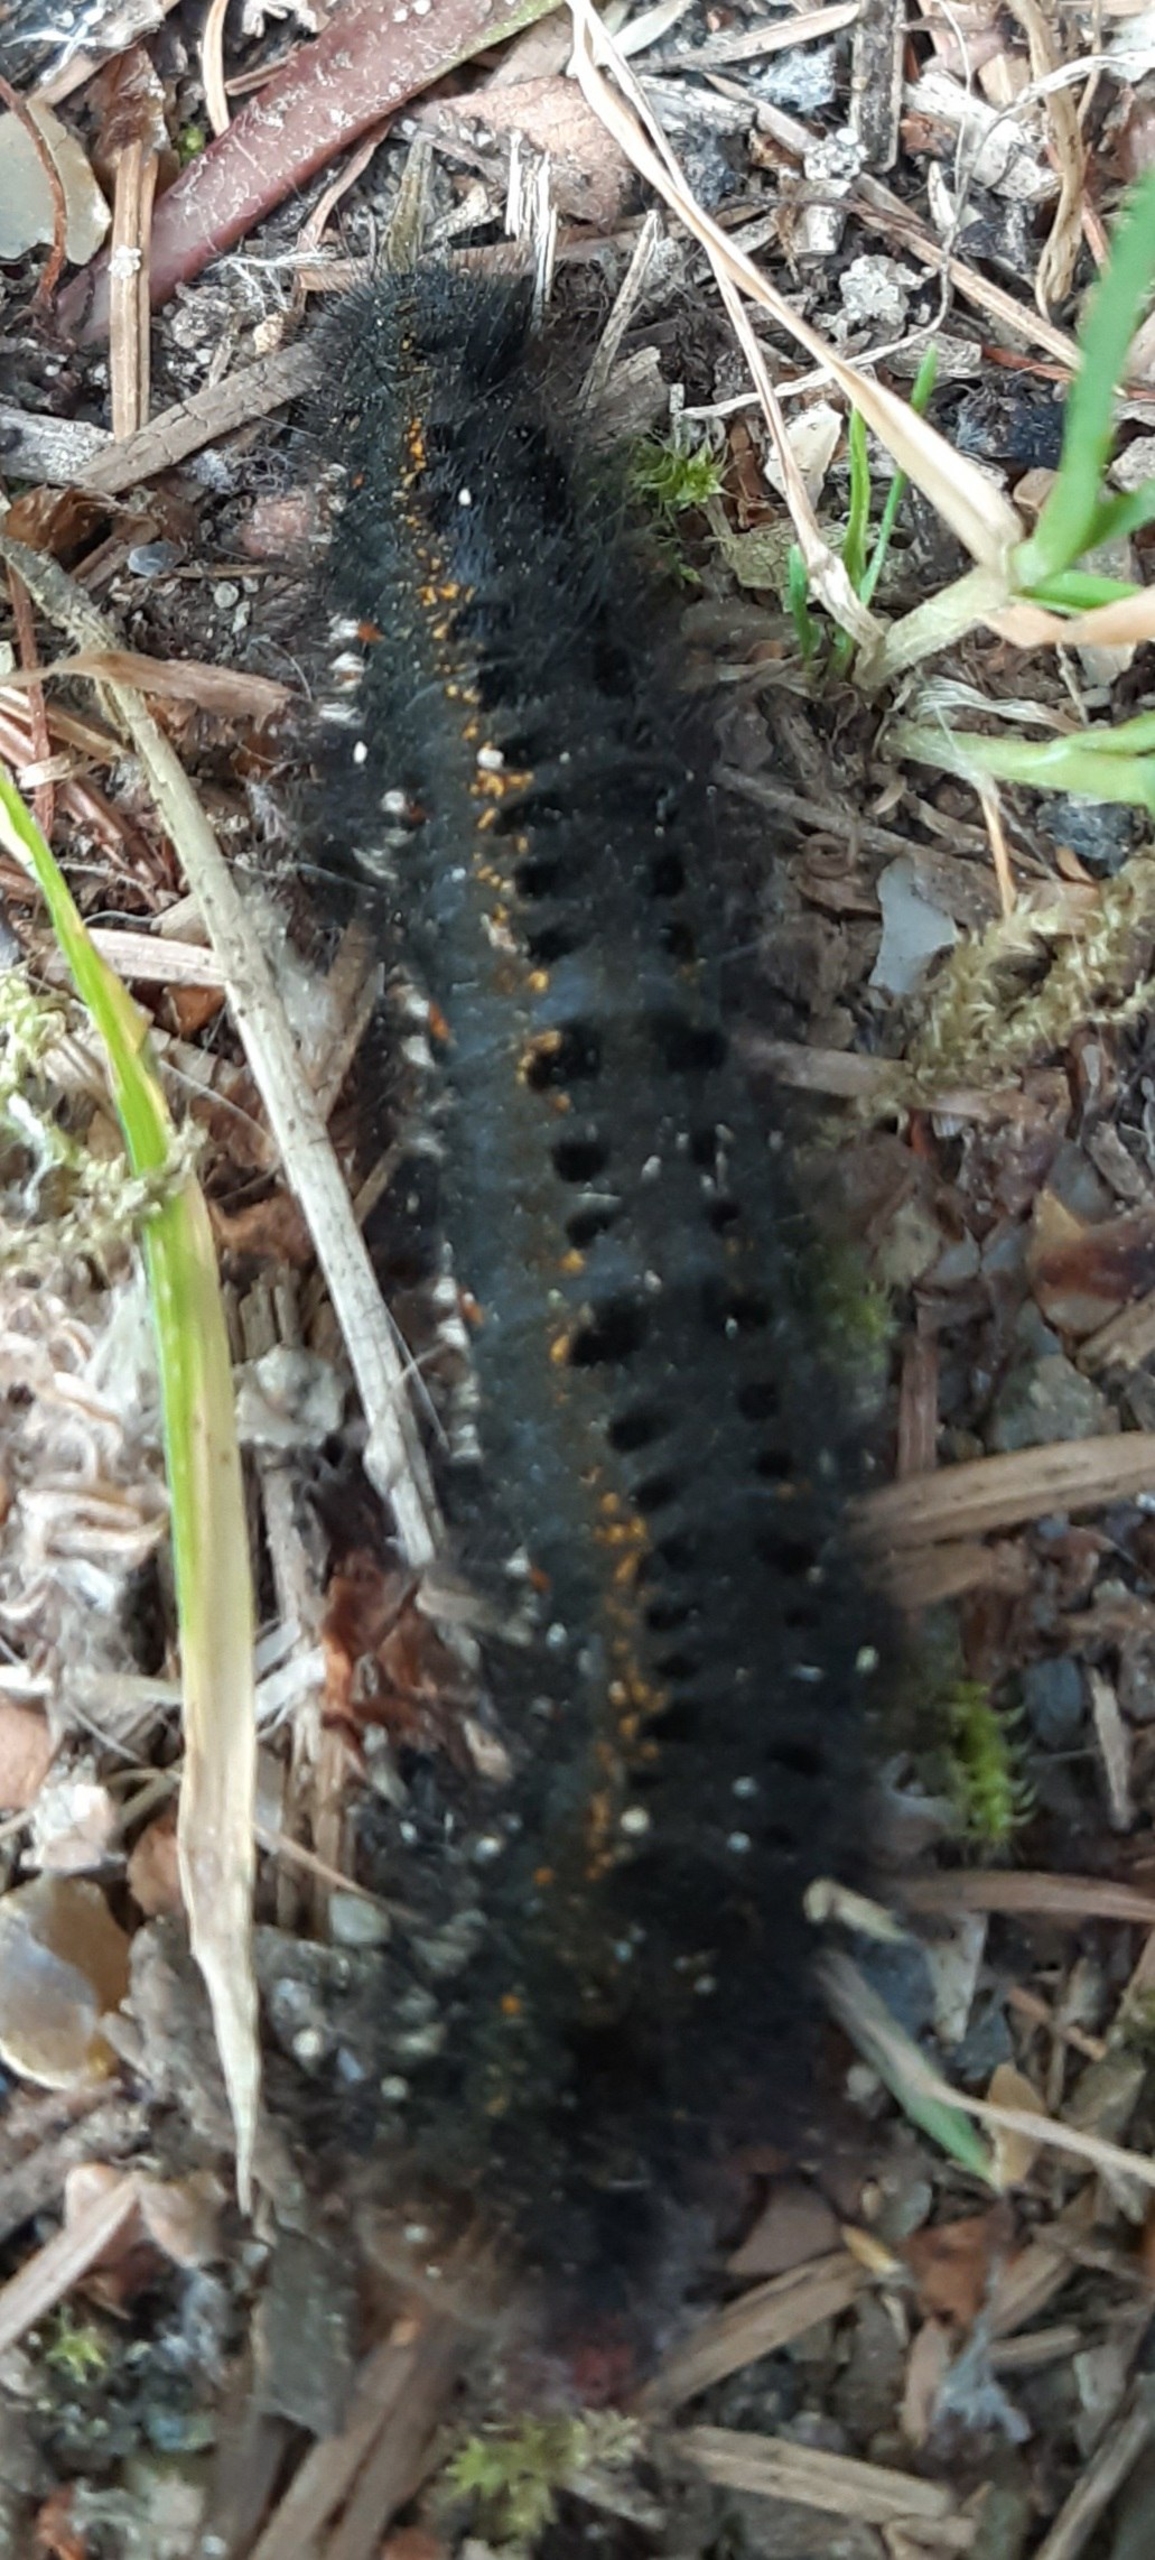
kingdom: Animalia
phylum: Arthropoda
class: Insecta
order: Lepidoptera
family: Lasiocampidae
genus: Euthrix
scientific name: Euthrix potatoria
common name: Græsspinder
